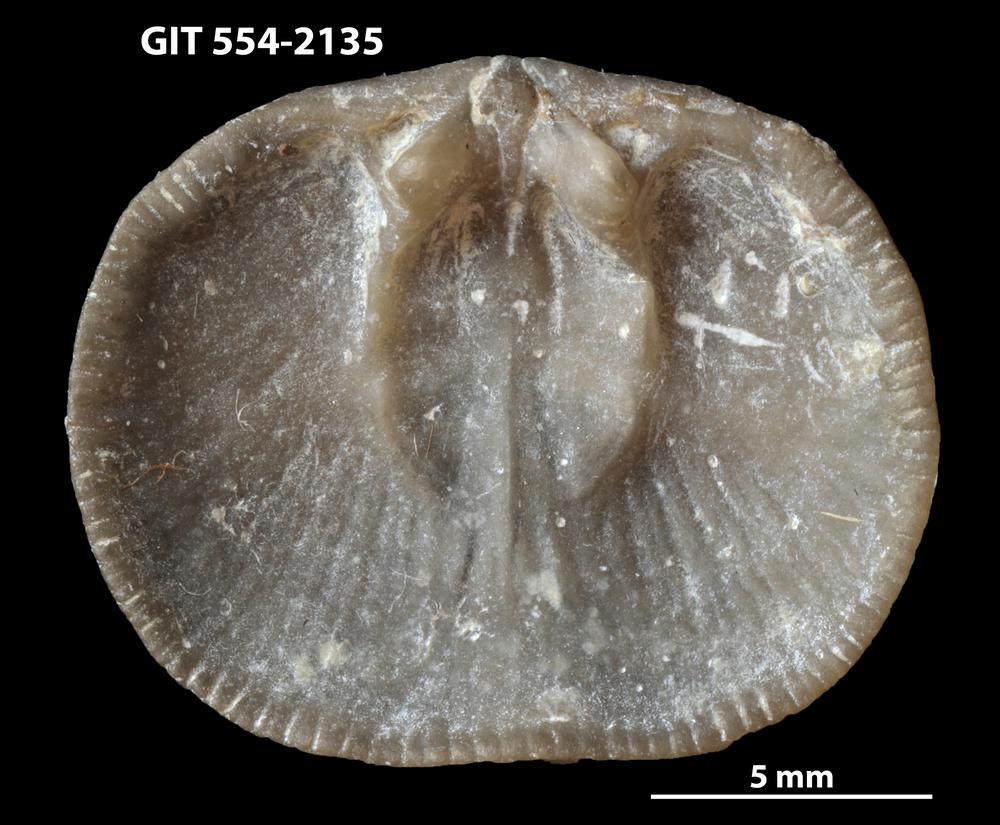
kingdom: Animalia
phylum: Brachiopoda
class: Rhynchonellata
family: Dalmanellidae
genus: Levenea
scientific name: Levenea Orthis canaliculata
